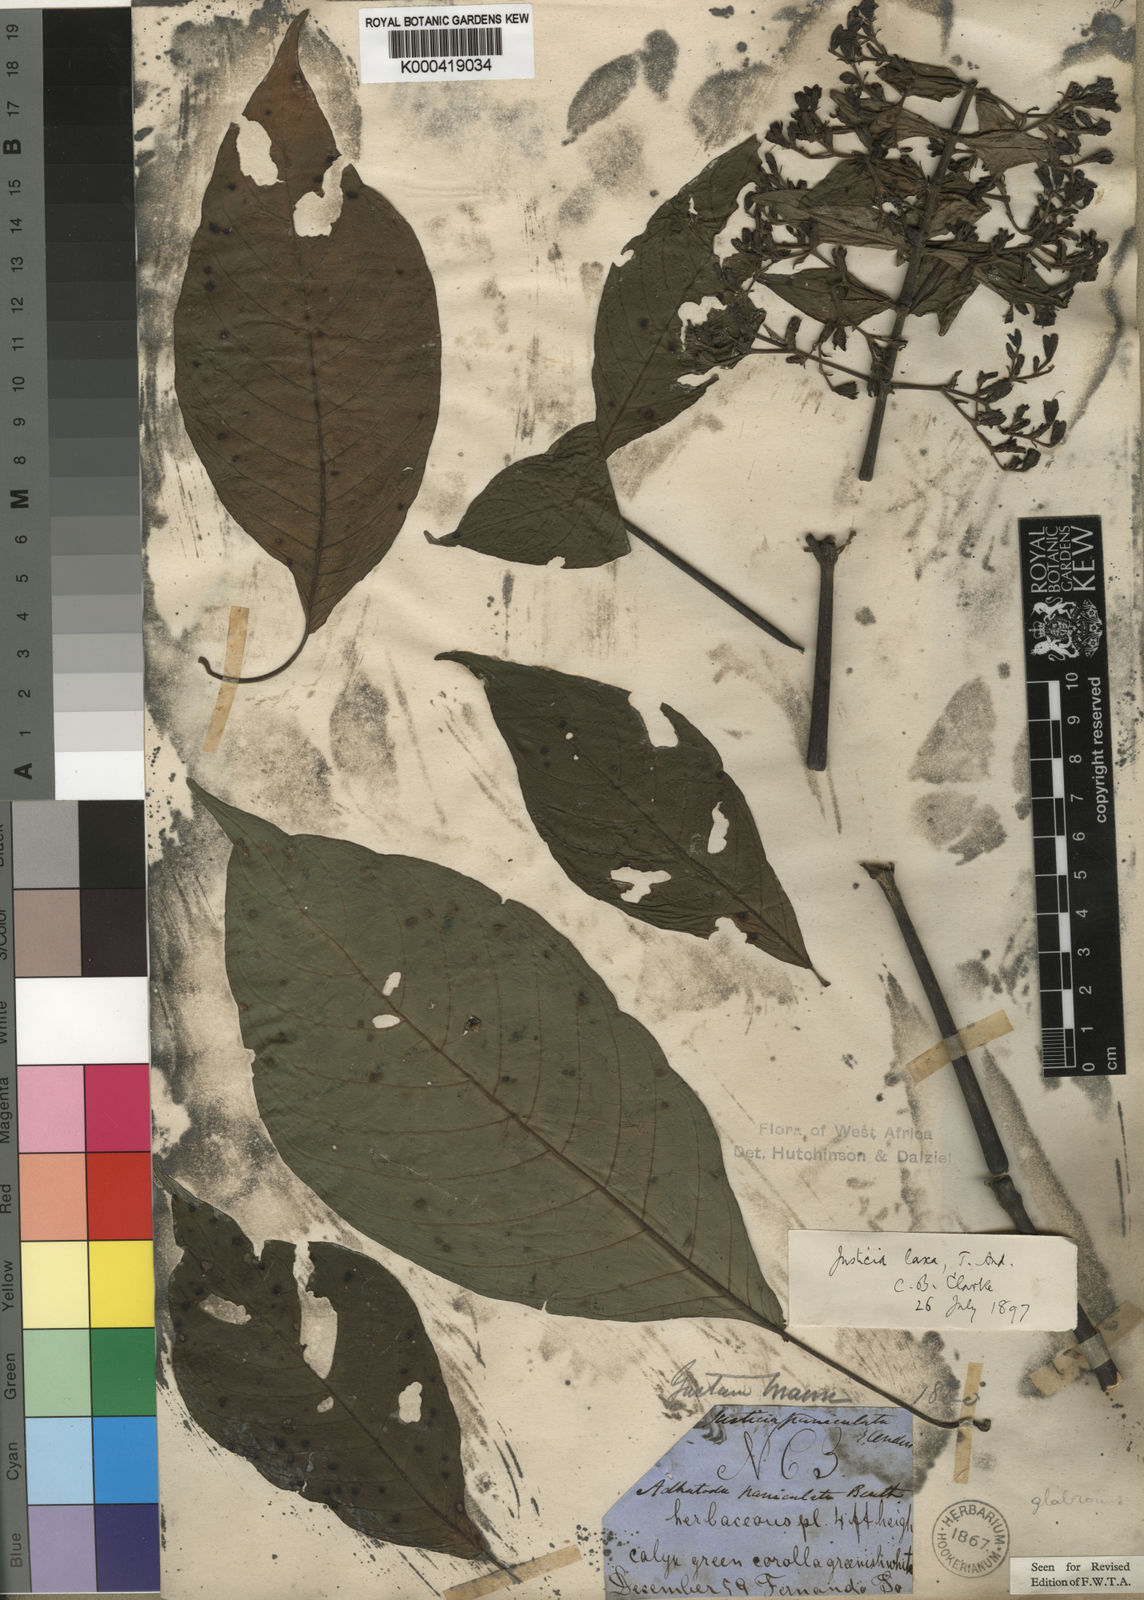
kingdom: Plantae
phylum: Tracheophyta
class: Magnoliopsida
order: Lamiales
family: Acanthaceae
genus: Justicia
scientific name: Justicia laxa
